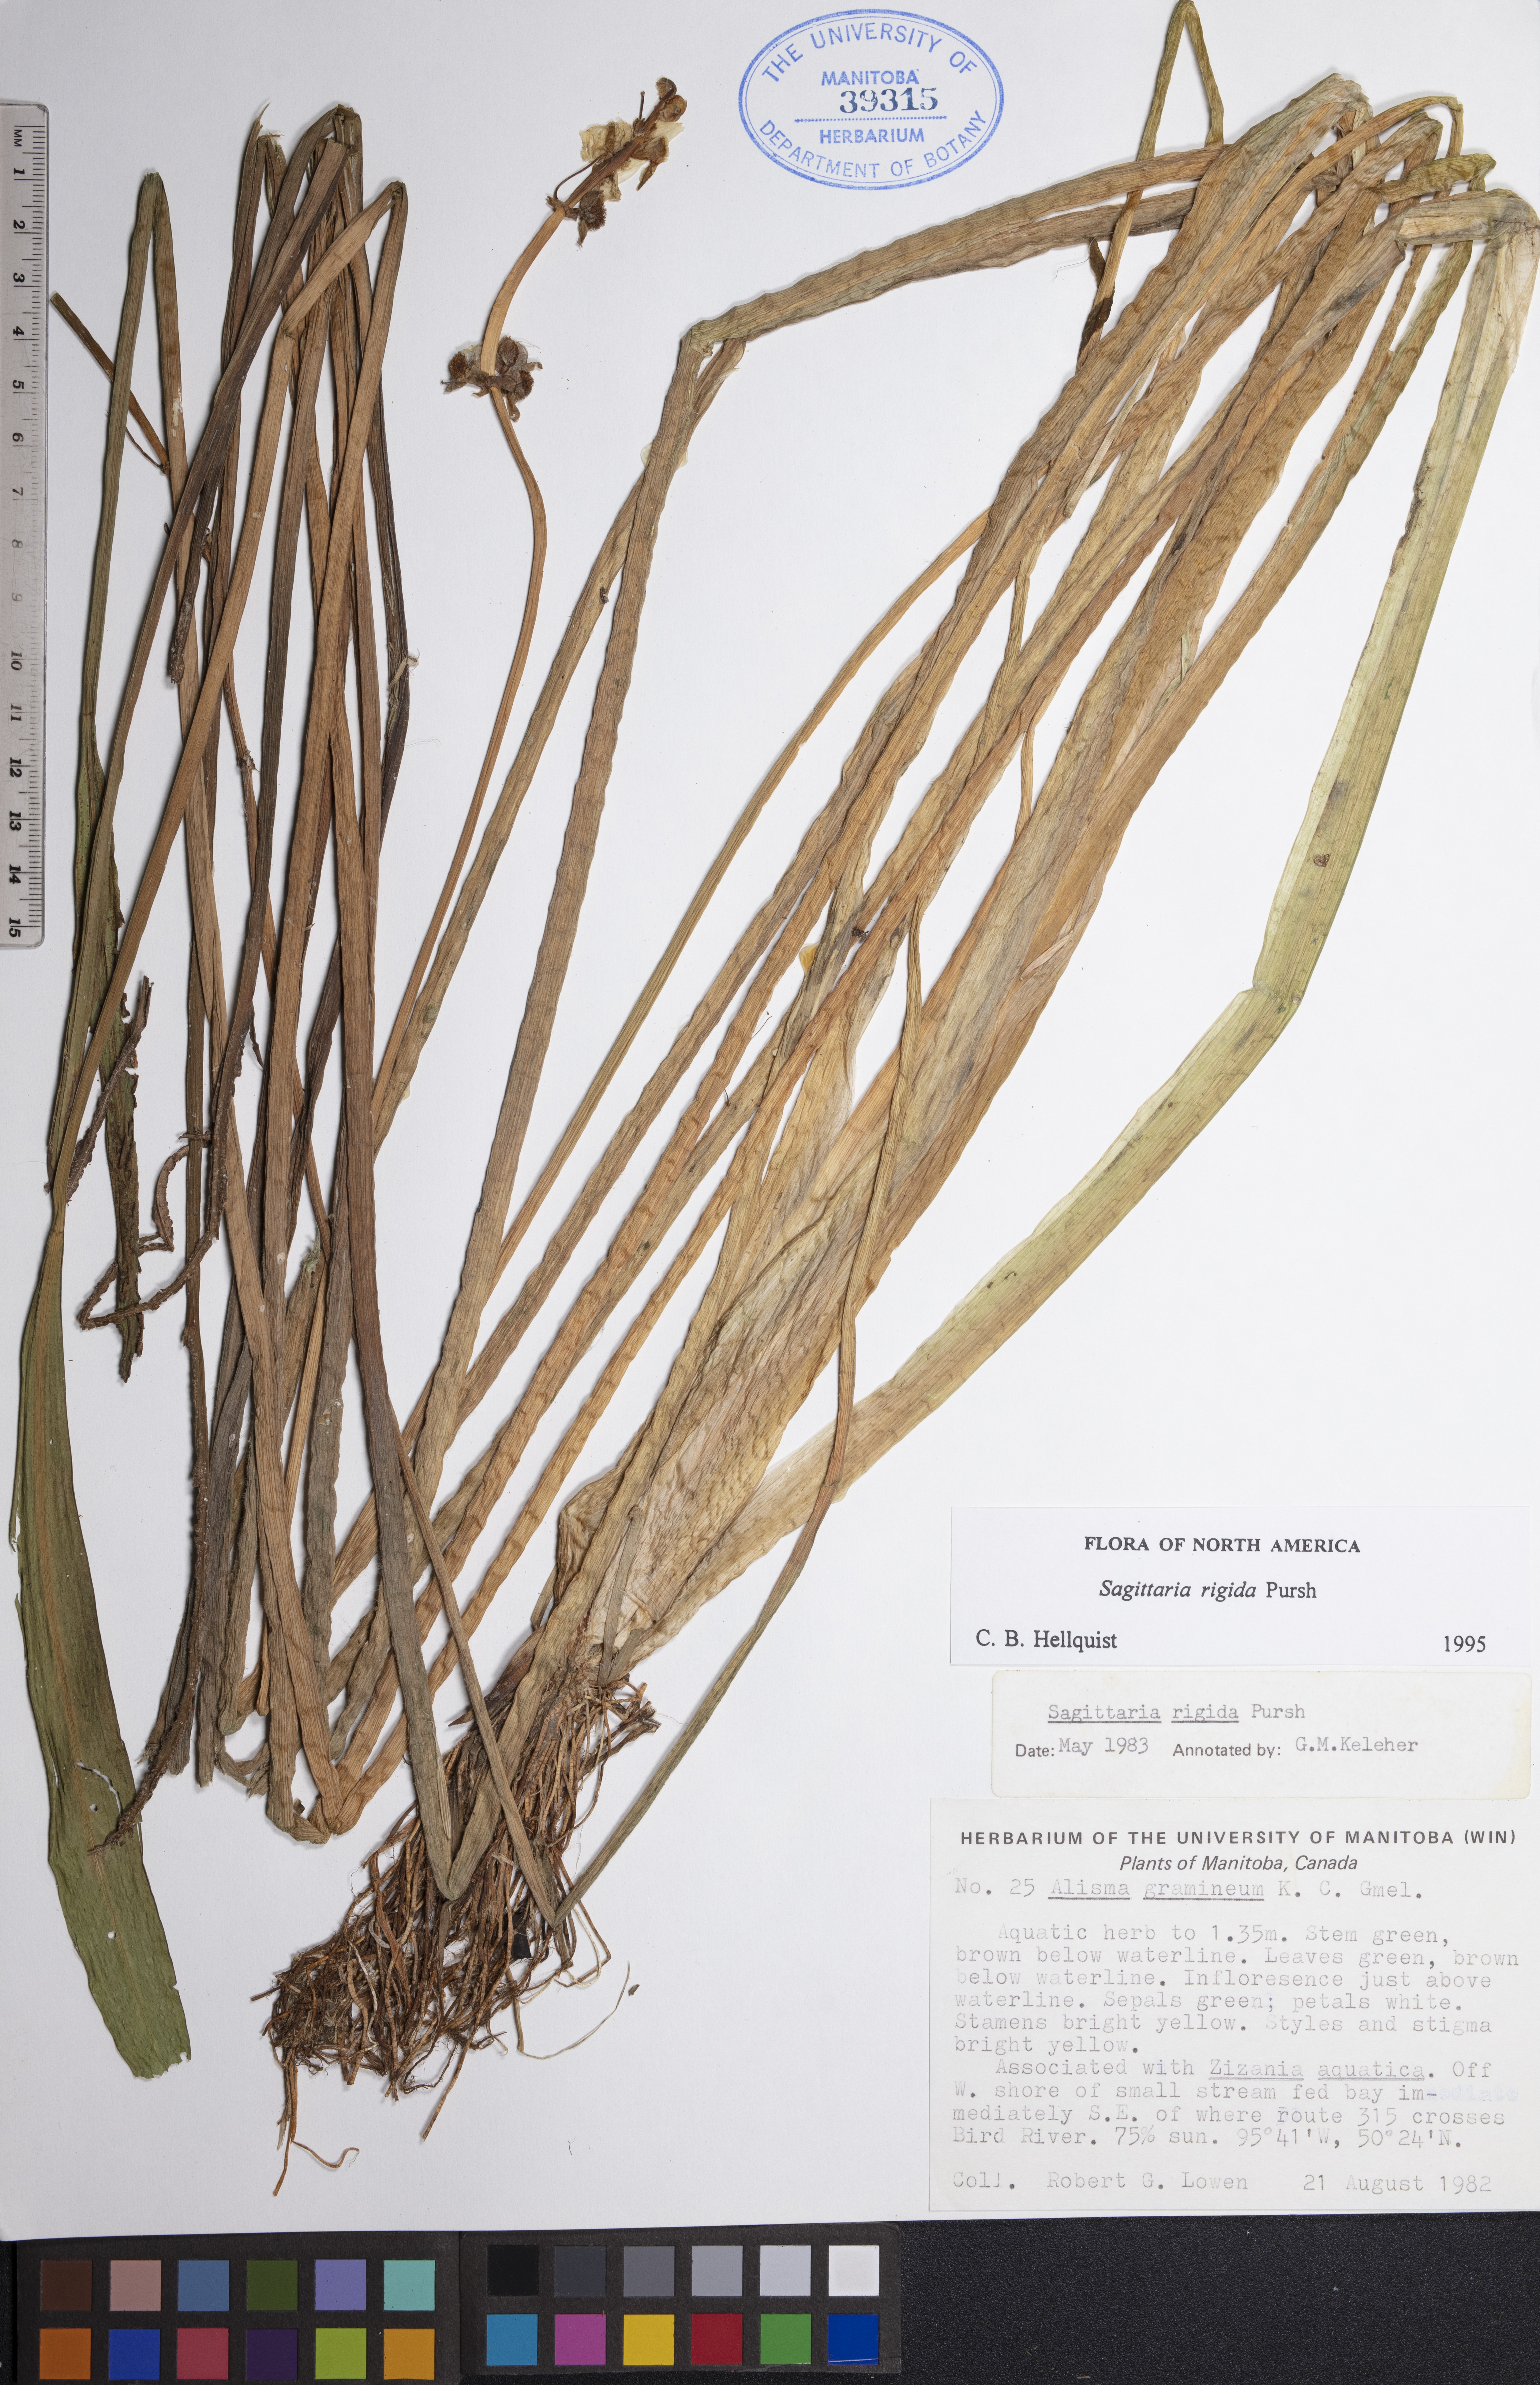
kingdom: Plantae
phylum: Tracheophyta
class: Liliopsida
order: Alismatales
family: Alismataceae
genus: Sagittaria
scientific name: Sagittaria rigida
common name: Canadian arrowhead
